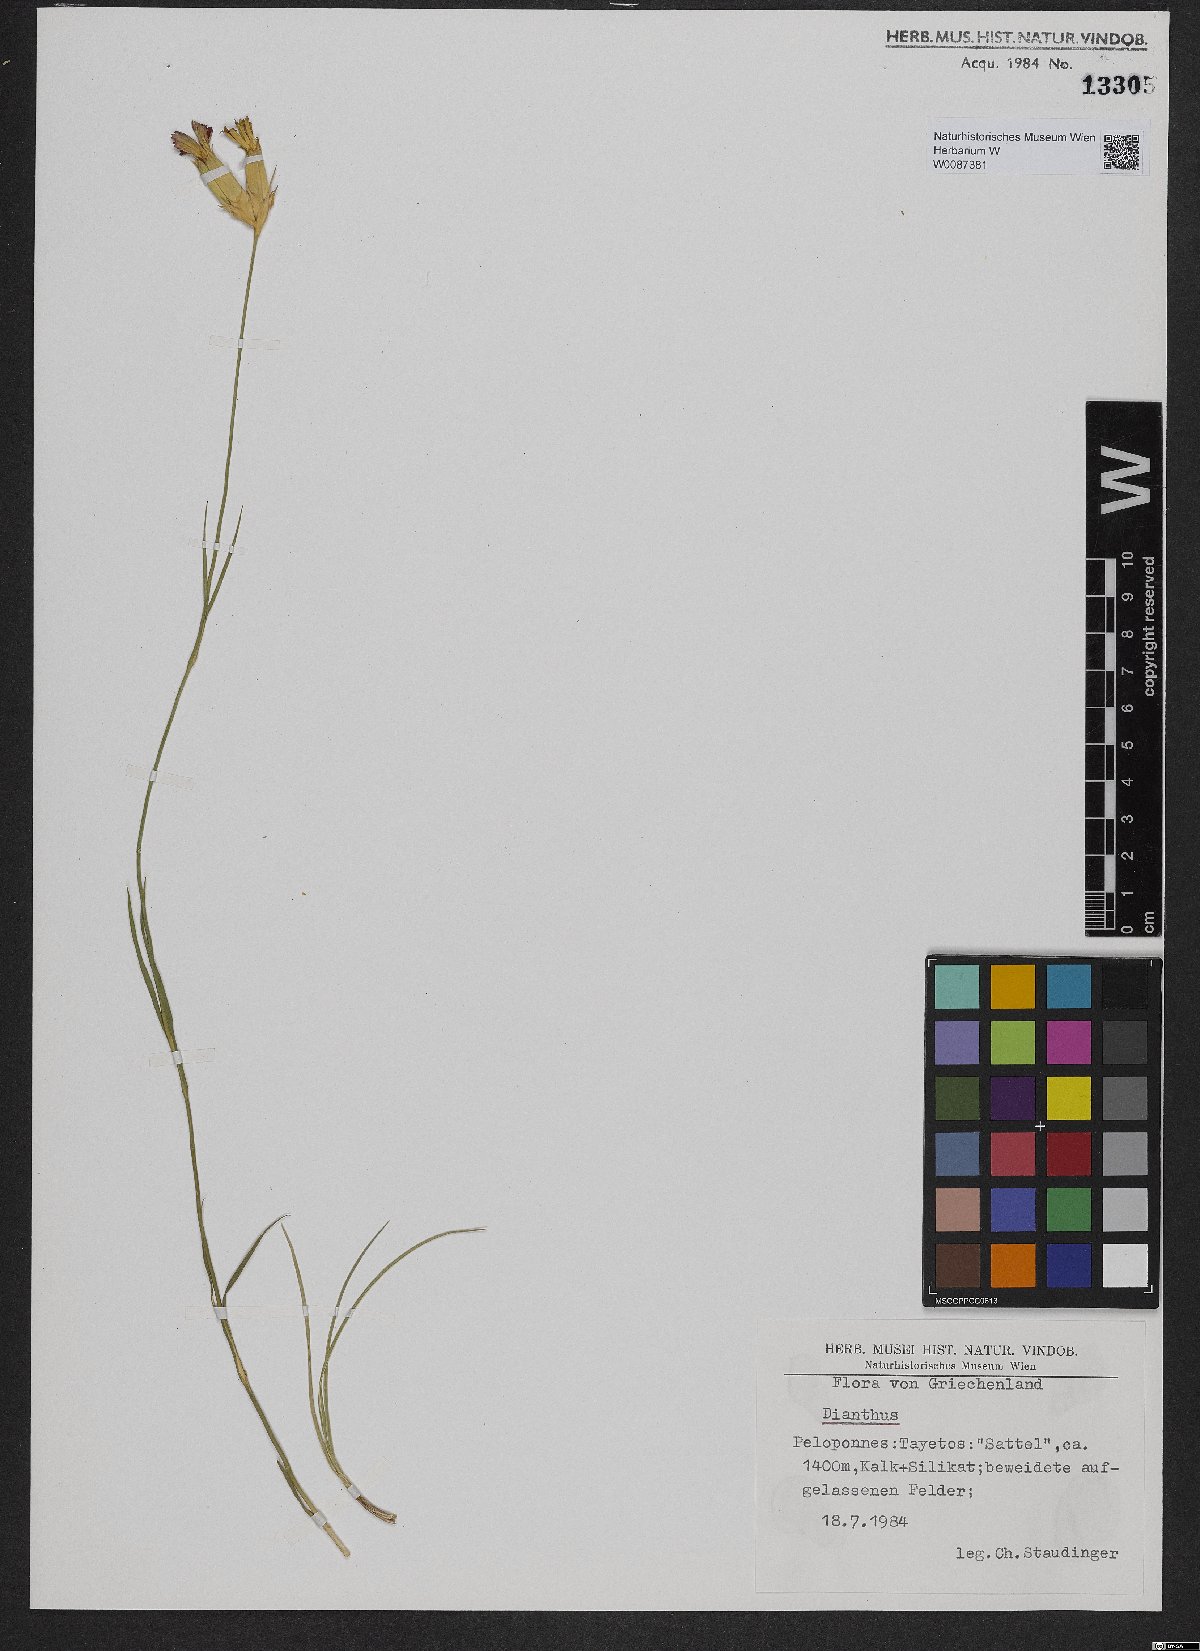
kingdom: Plantae
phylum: Tracheophyta
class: Magnoliopsida
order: Caryophyllales
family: Caryophyllaceae
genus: Dianthus
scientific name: Dianthus
